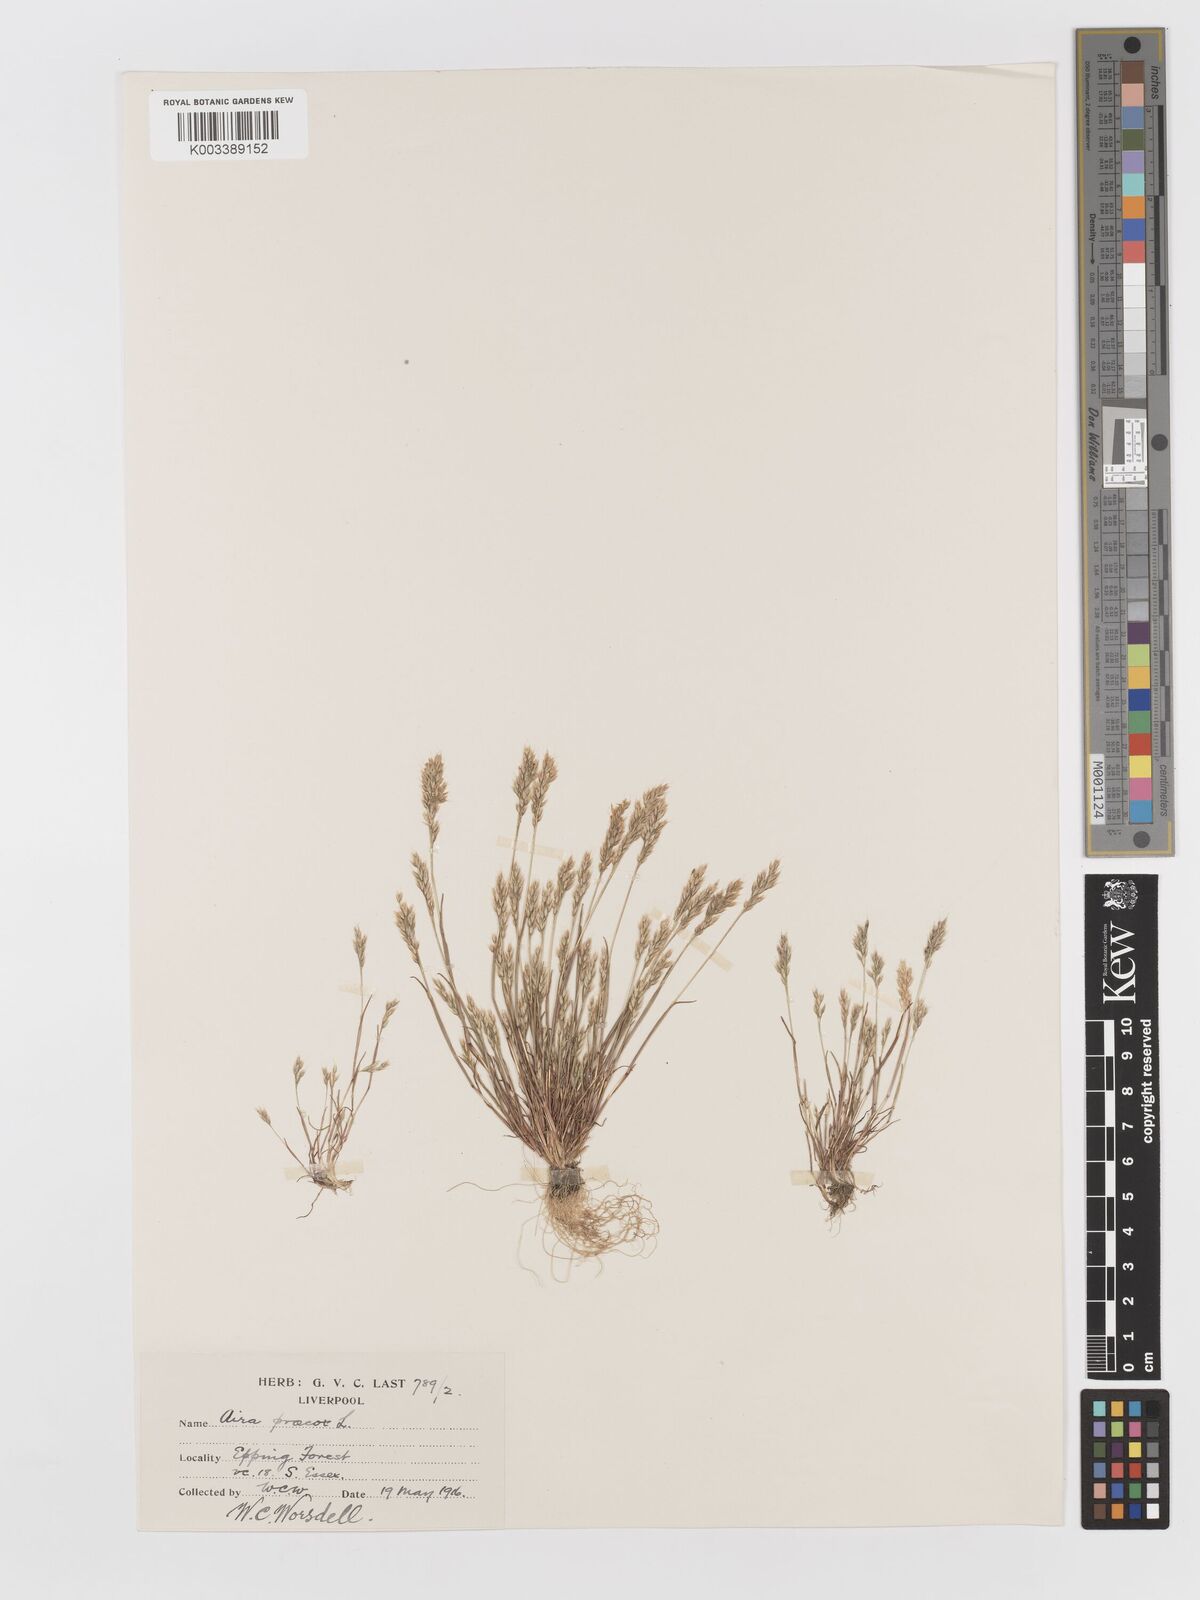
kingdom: Plantae
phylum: Tracheophyta
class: Liliopsida
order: Poales
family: Poaceae
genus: Aira
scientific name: Aira praecox
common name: Early hair-grass
